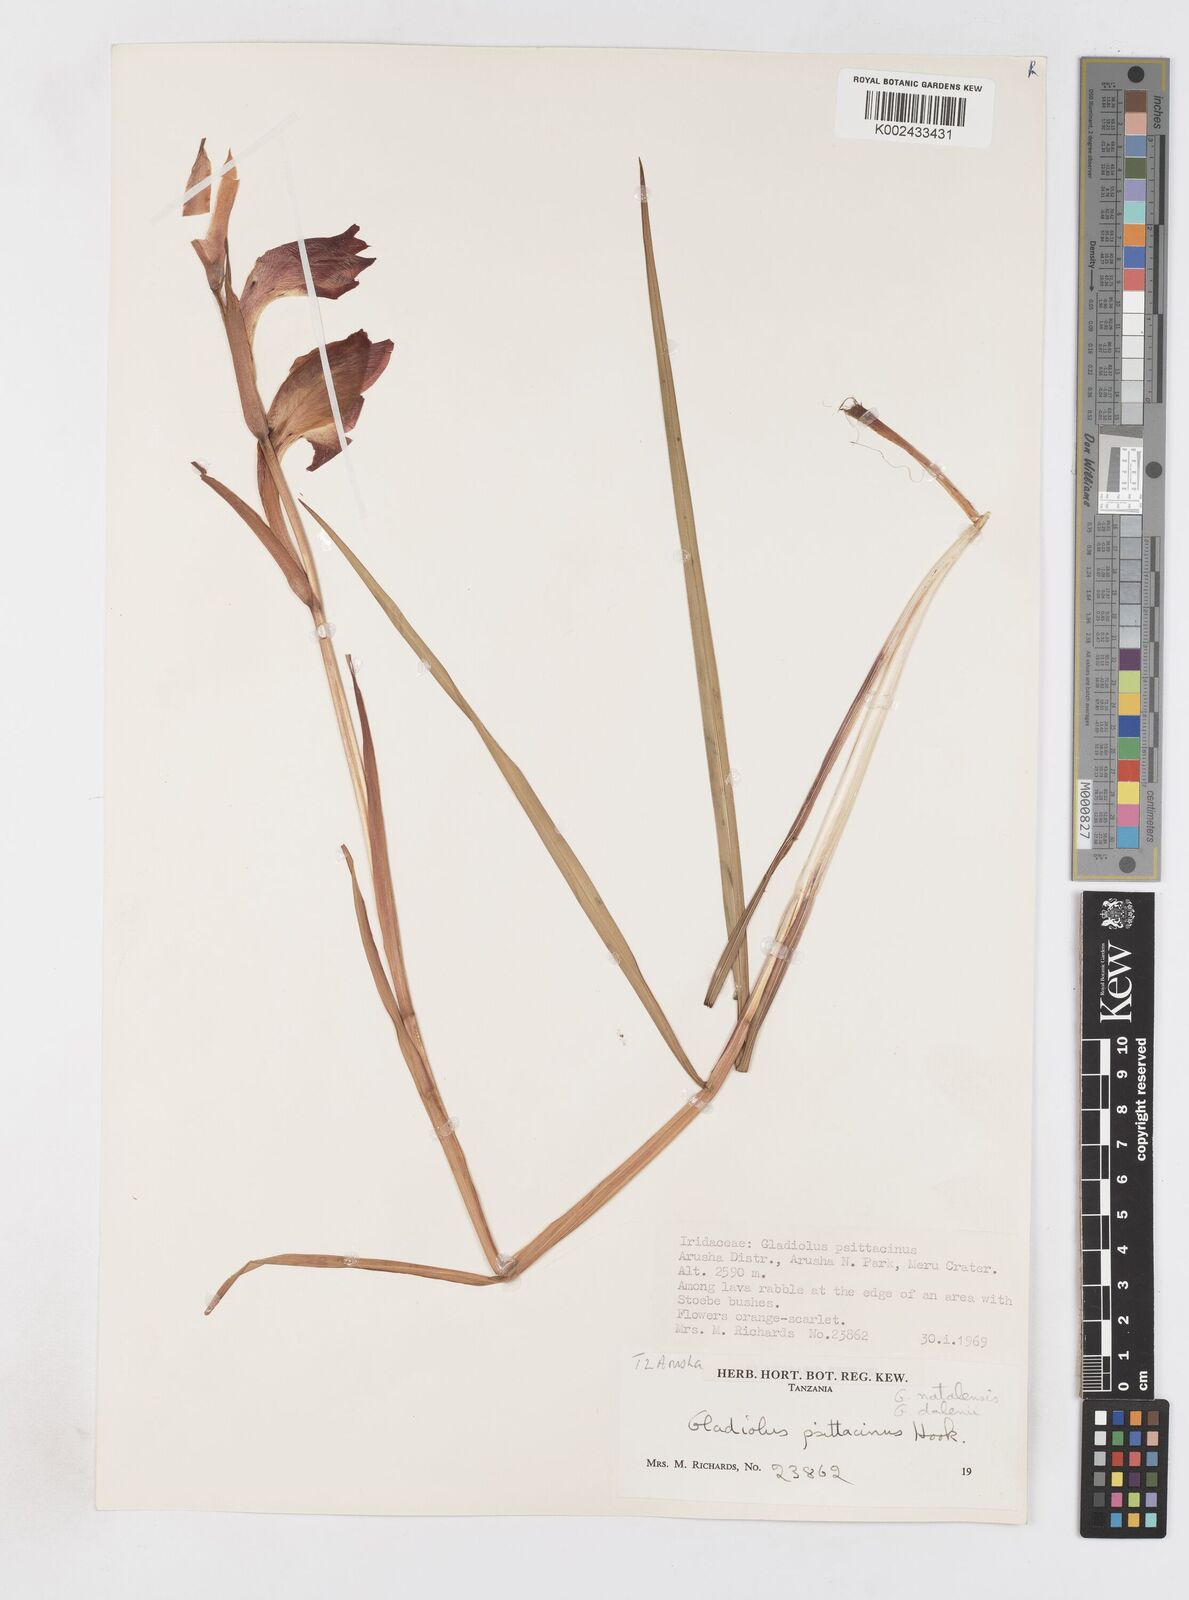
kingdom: Plantae
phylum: Tracheophyta
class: Liliopsida
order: Asparagales
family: Iridaceae
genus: Gladiolus
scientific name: Gladiolus dalenii
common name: Cornflag
